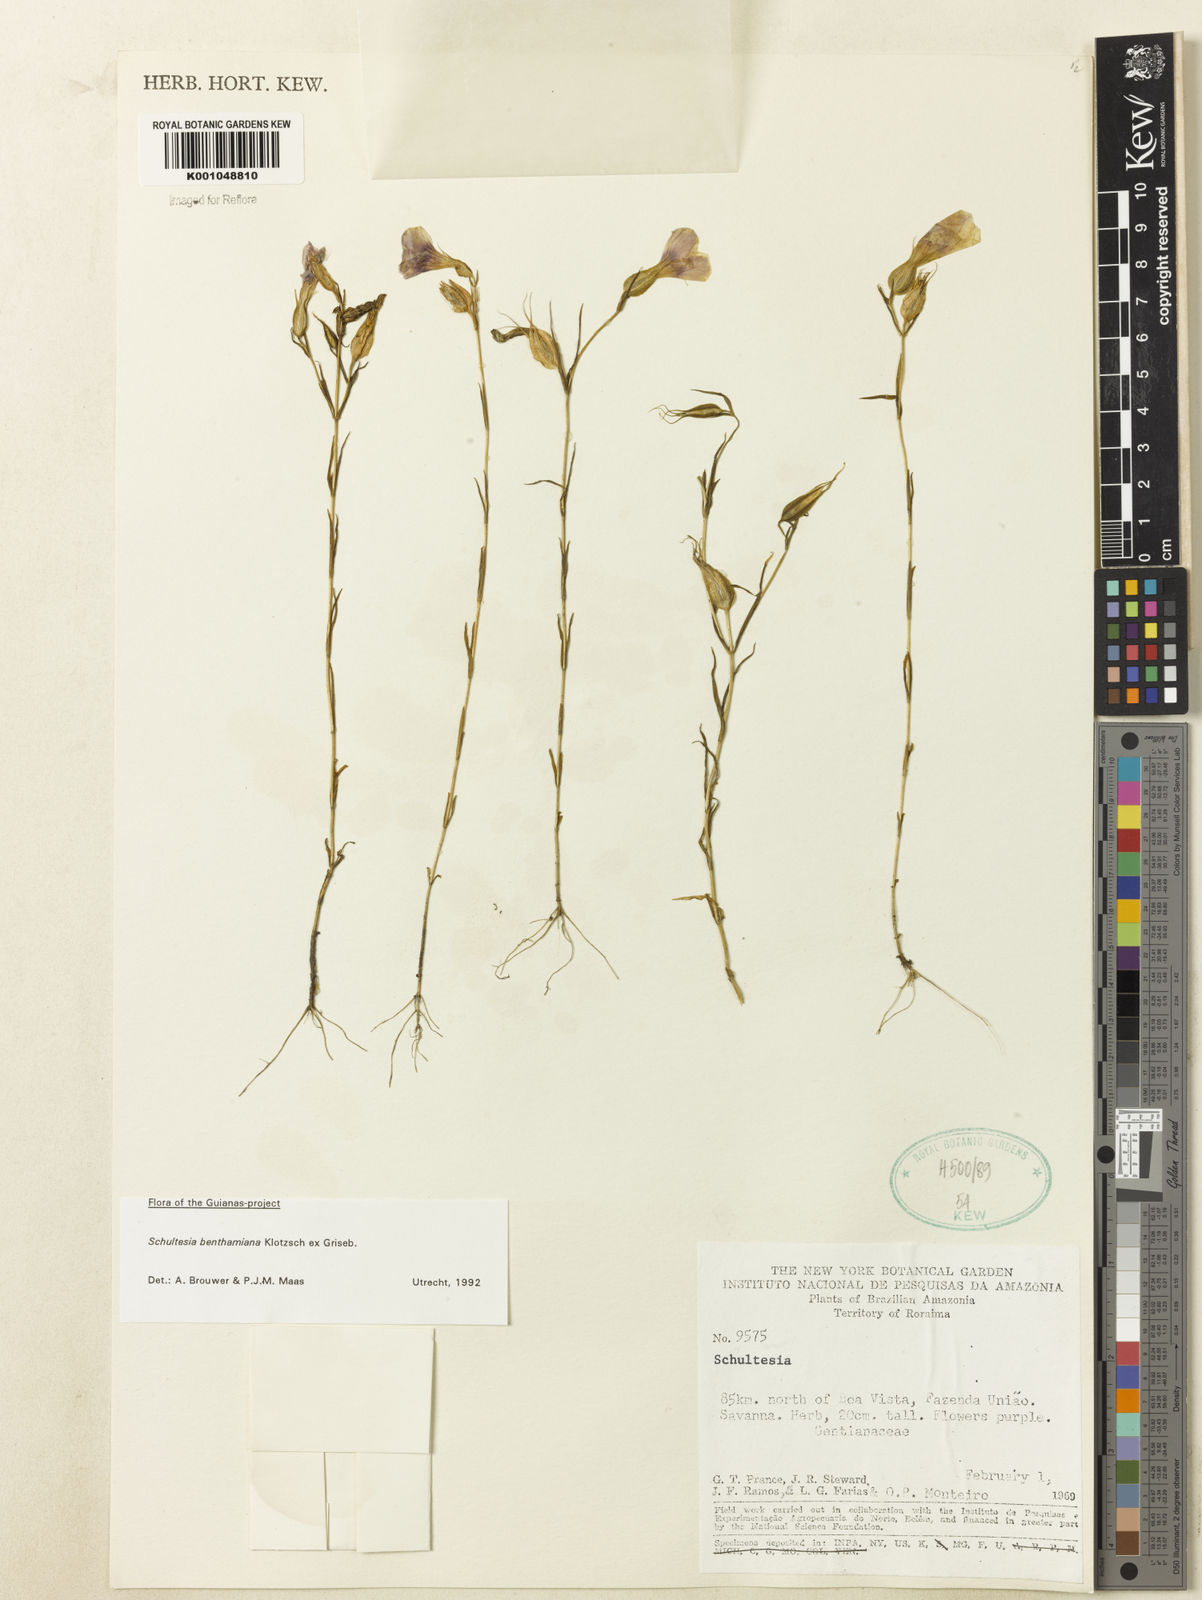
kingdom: Plantae
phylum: Tracheophyta
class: Magnoliopsida
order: Gentianales
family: Gentianaceae
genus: Schultesia
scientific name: Schultesia benthamiana
